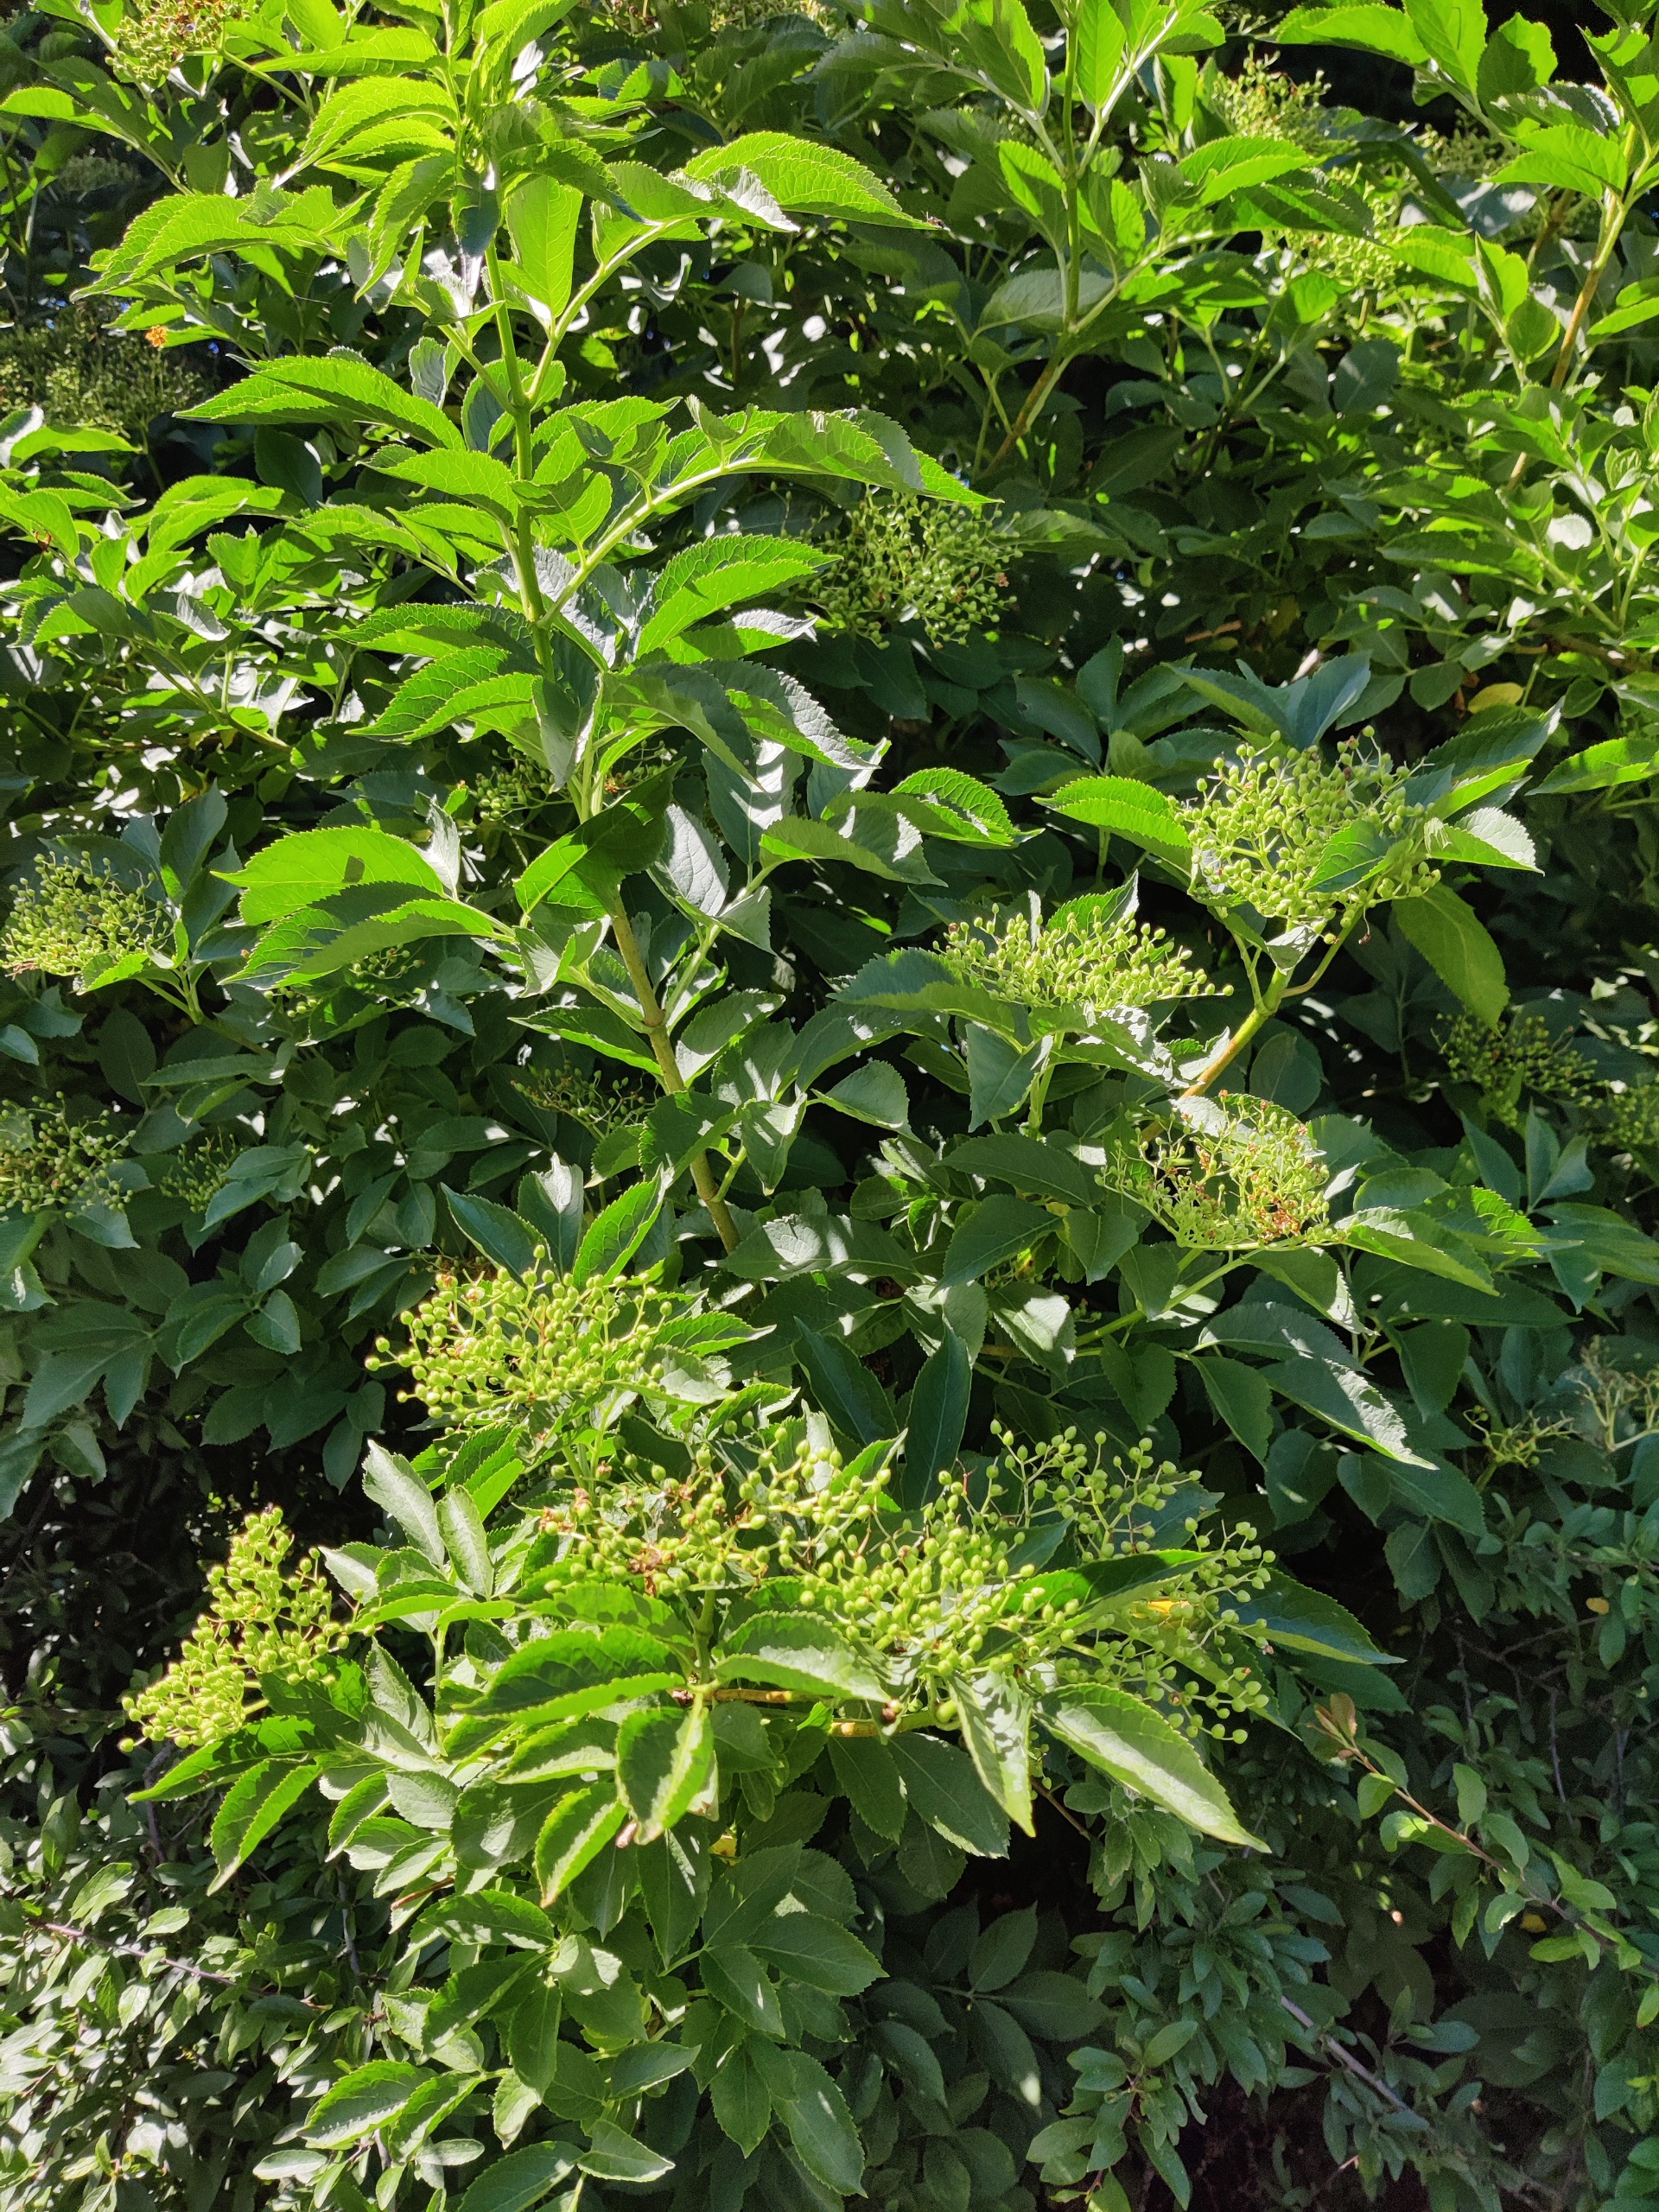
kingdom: Plantae
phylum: Tracheophyta
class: Magnoliopsida
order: Dipsacales
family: Viburnaceae
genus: Sambucus
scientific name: Sambucus nigra
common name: Almindelig hyld
